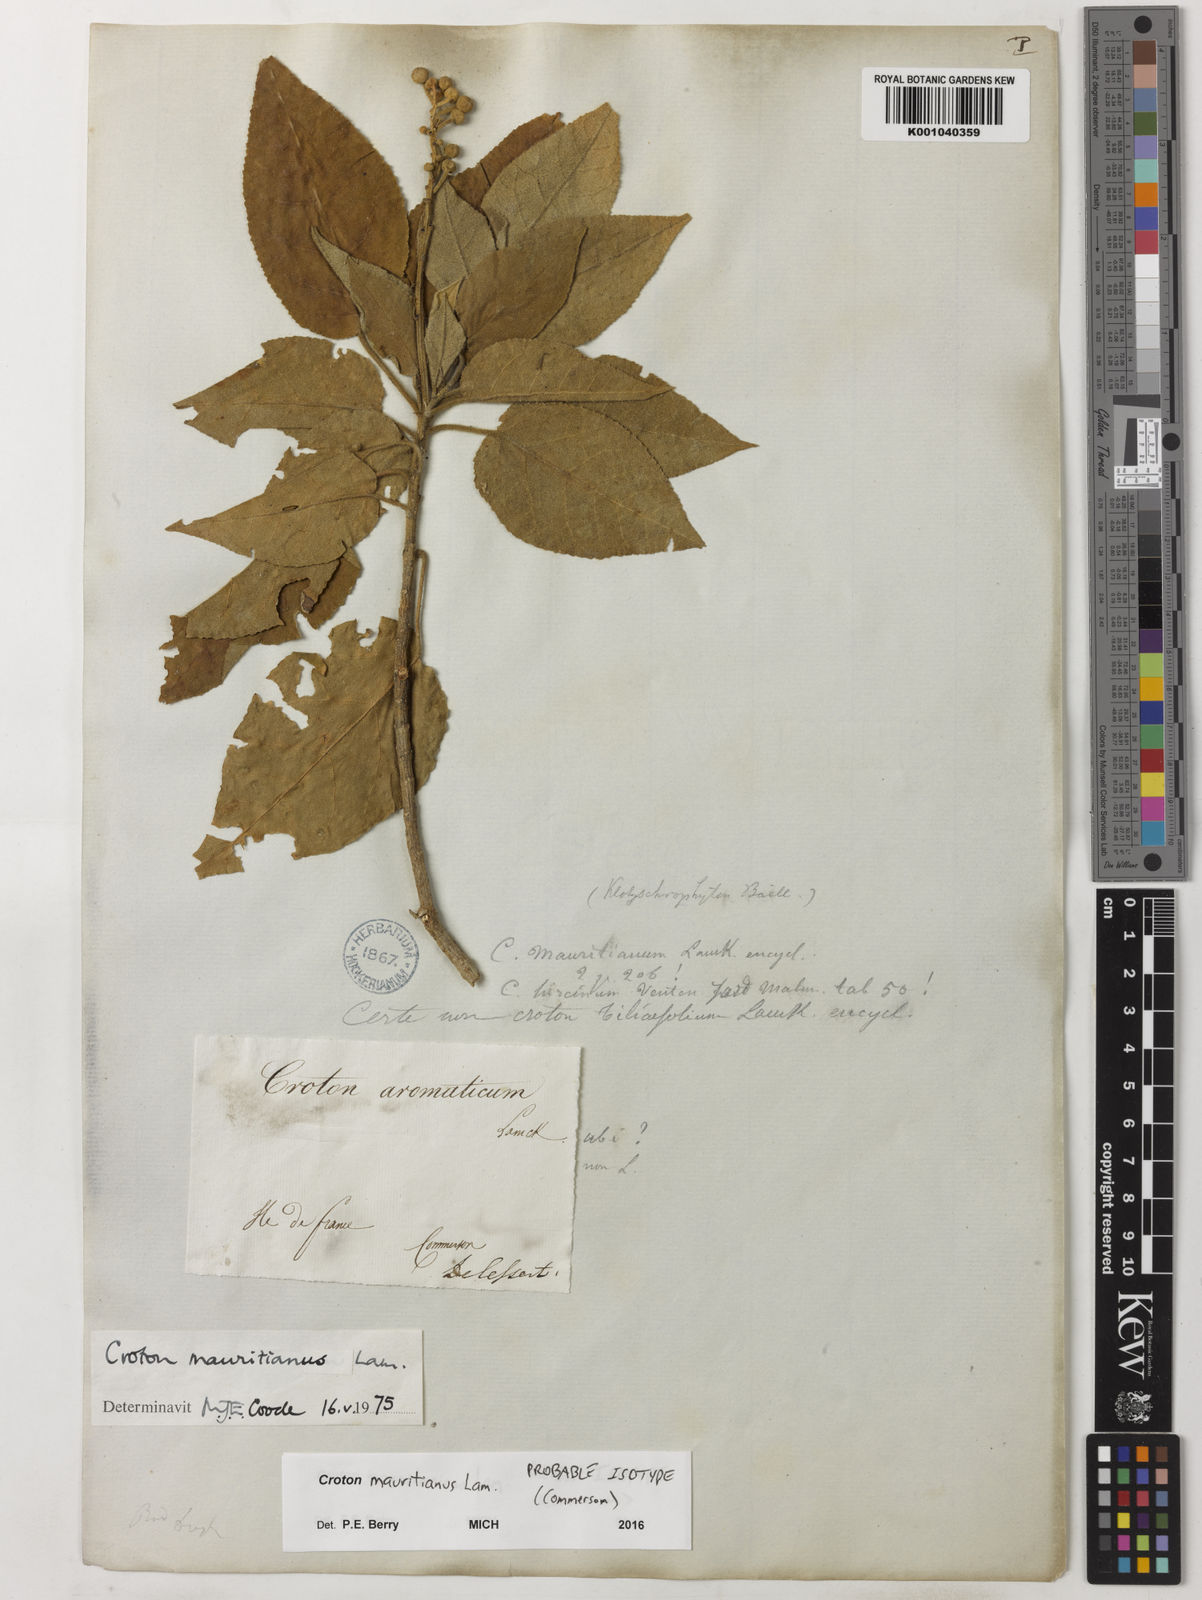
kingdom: Plantae
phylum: Tracheophyta
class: Magnoliopsida
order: Malpighiales
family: Euphorbiaceae
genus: Croton
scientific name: Croton mauritianus
